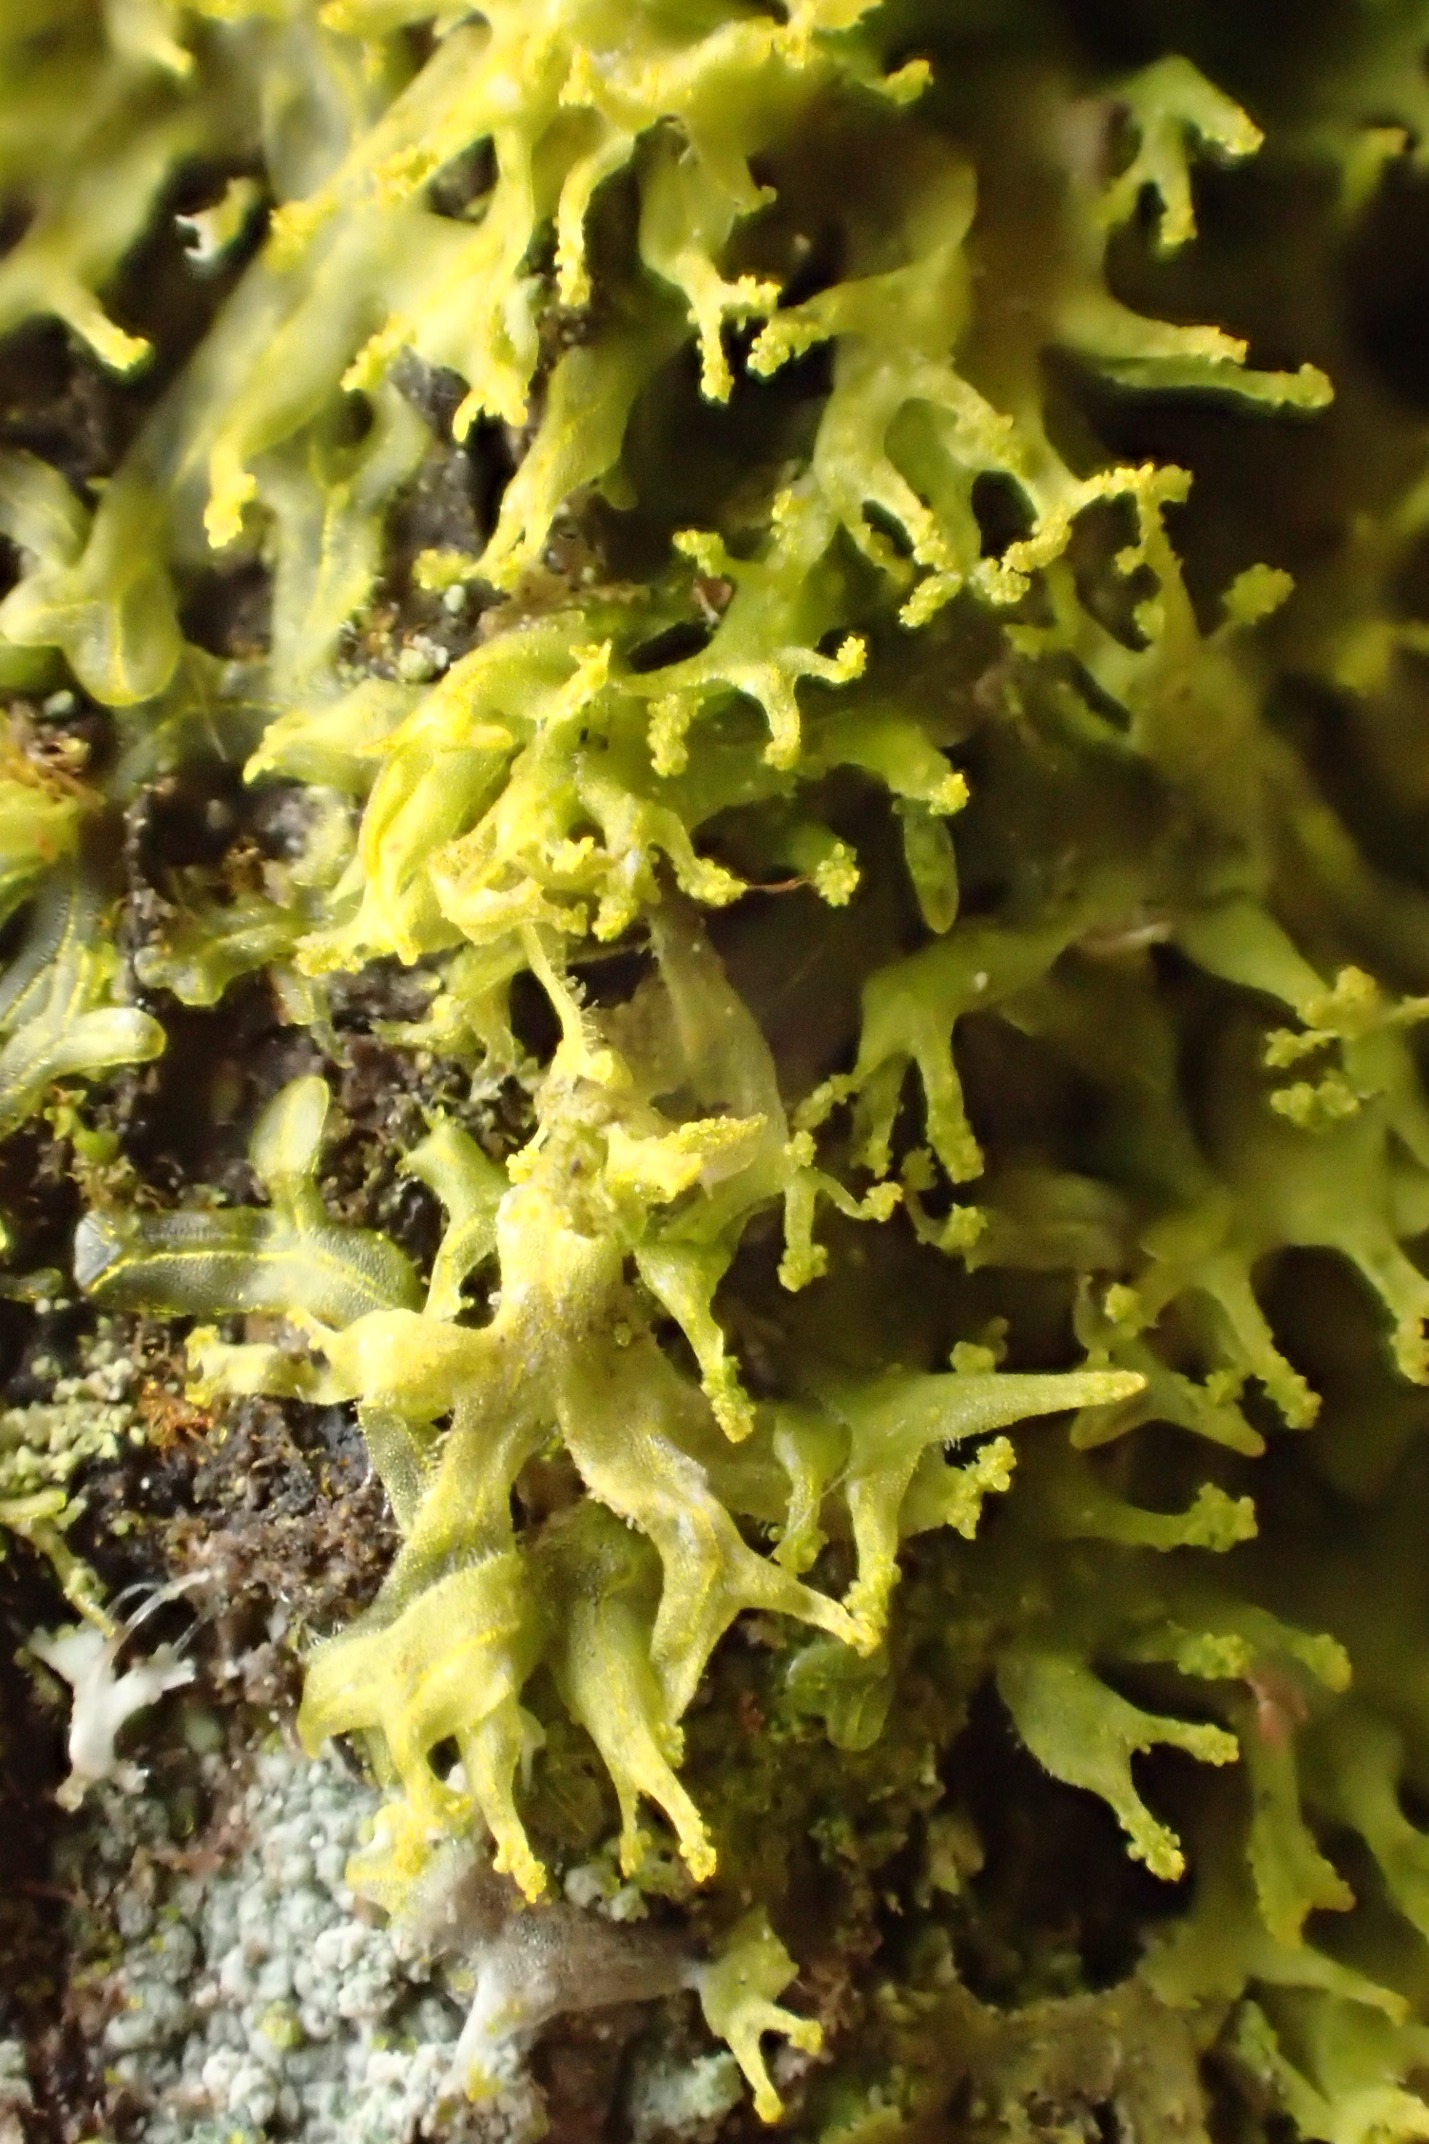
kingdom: Plantae
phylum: Marchantiophyta
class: Jungermanniopsida
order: Metzgeriales
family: Aneuraceae
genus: Riccardia
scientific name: Riccardia palmata
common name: Blågrøn gaffelløv
